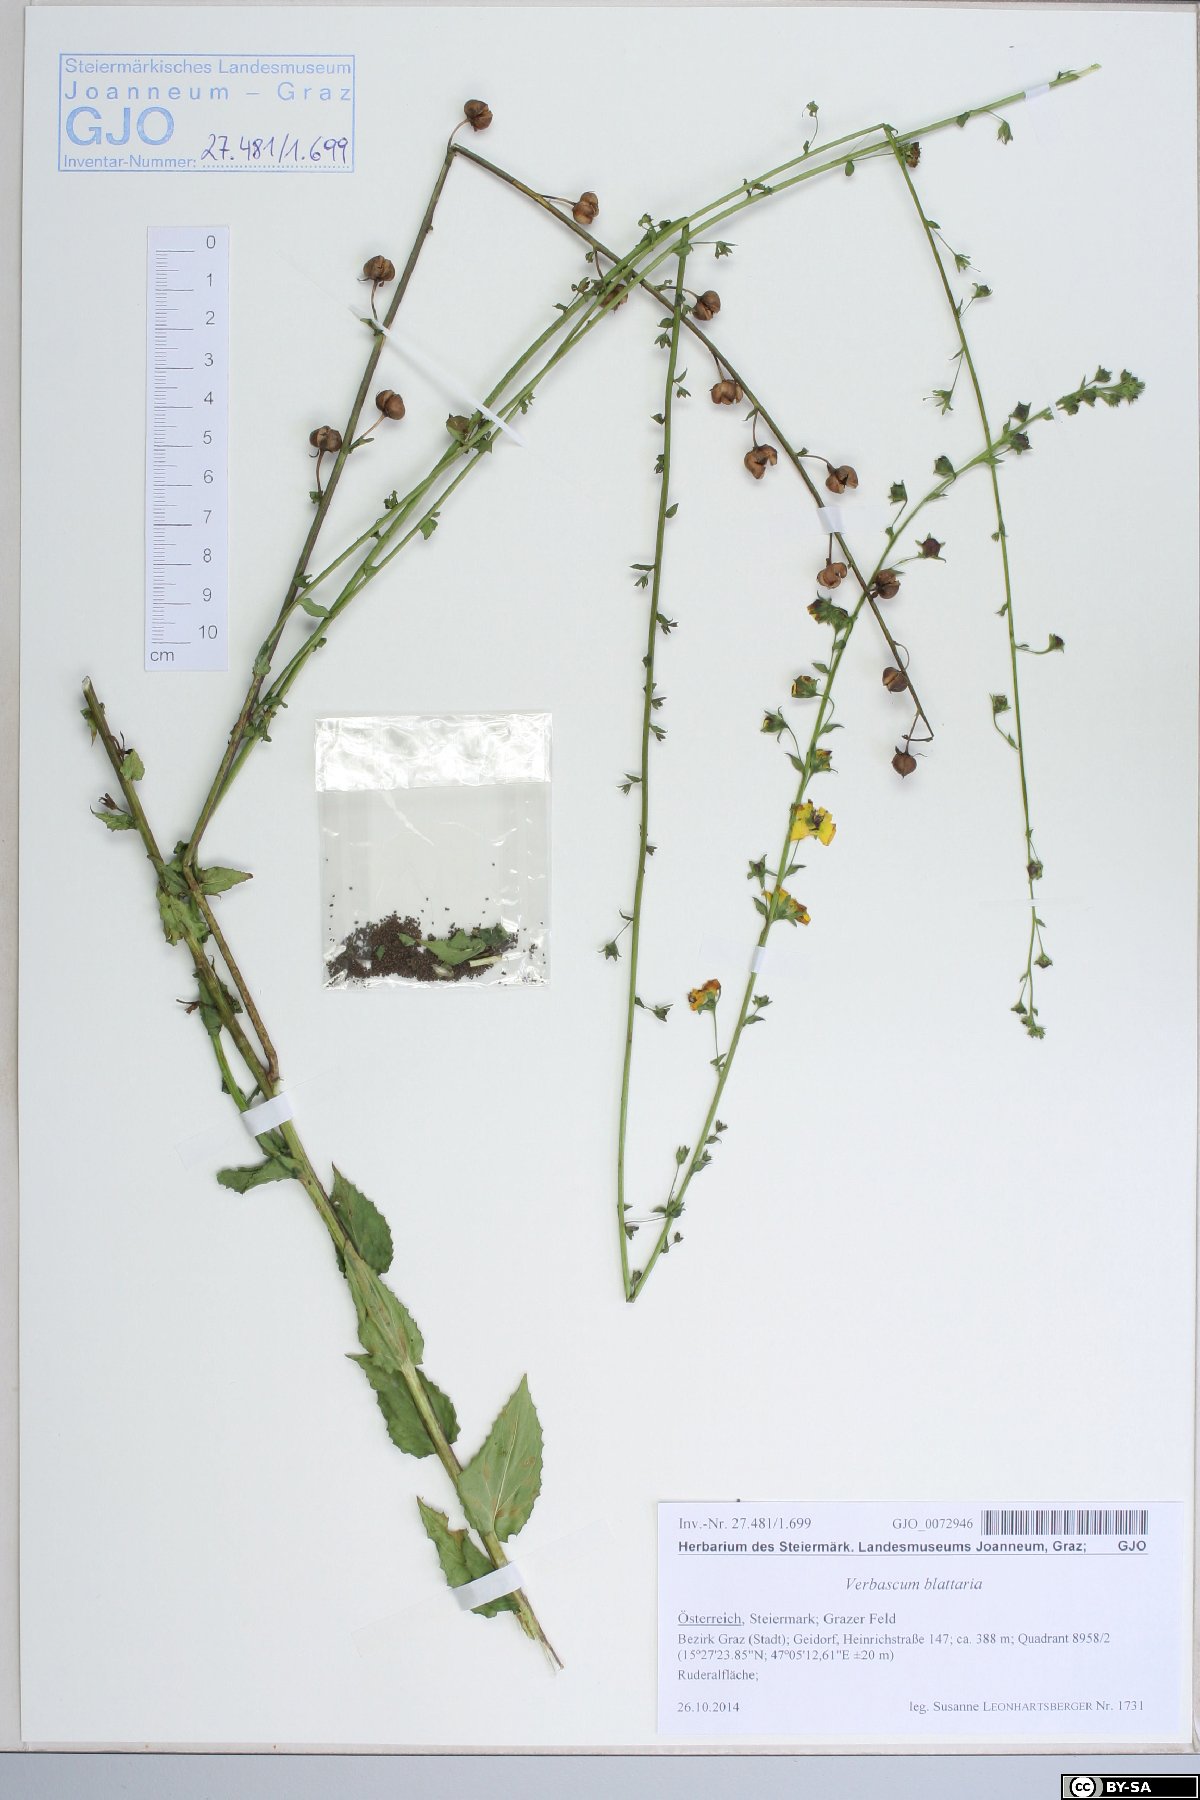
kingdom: Plantae
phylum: Tracheophyta
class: Magnoliopsida
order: Lamiales
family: Scrophulariaceae
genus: Verbascum
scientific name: Verbascum blattaria
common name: Moth mullein
